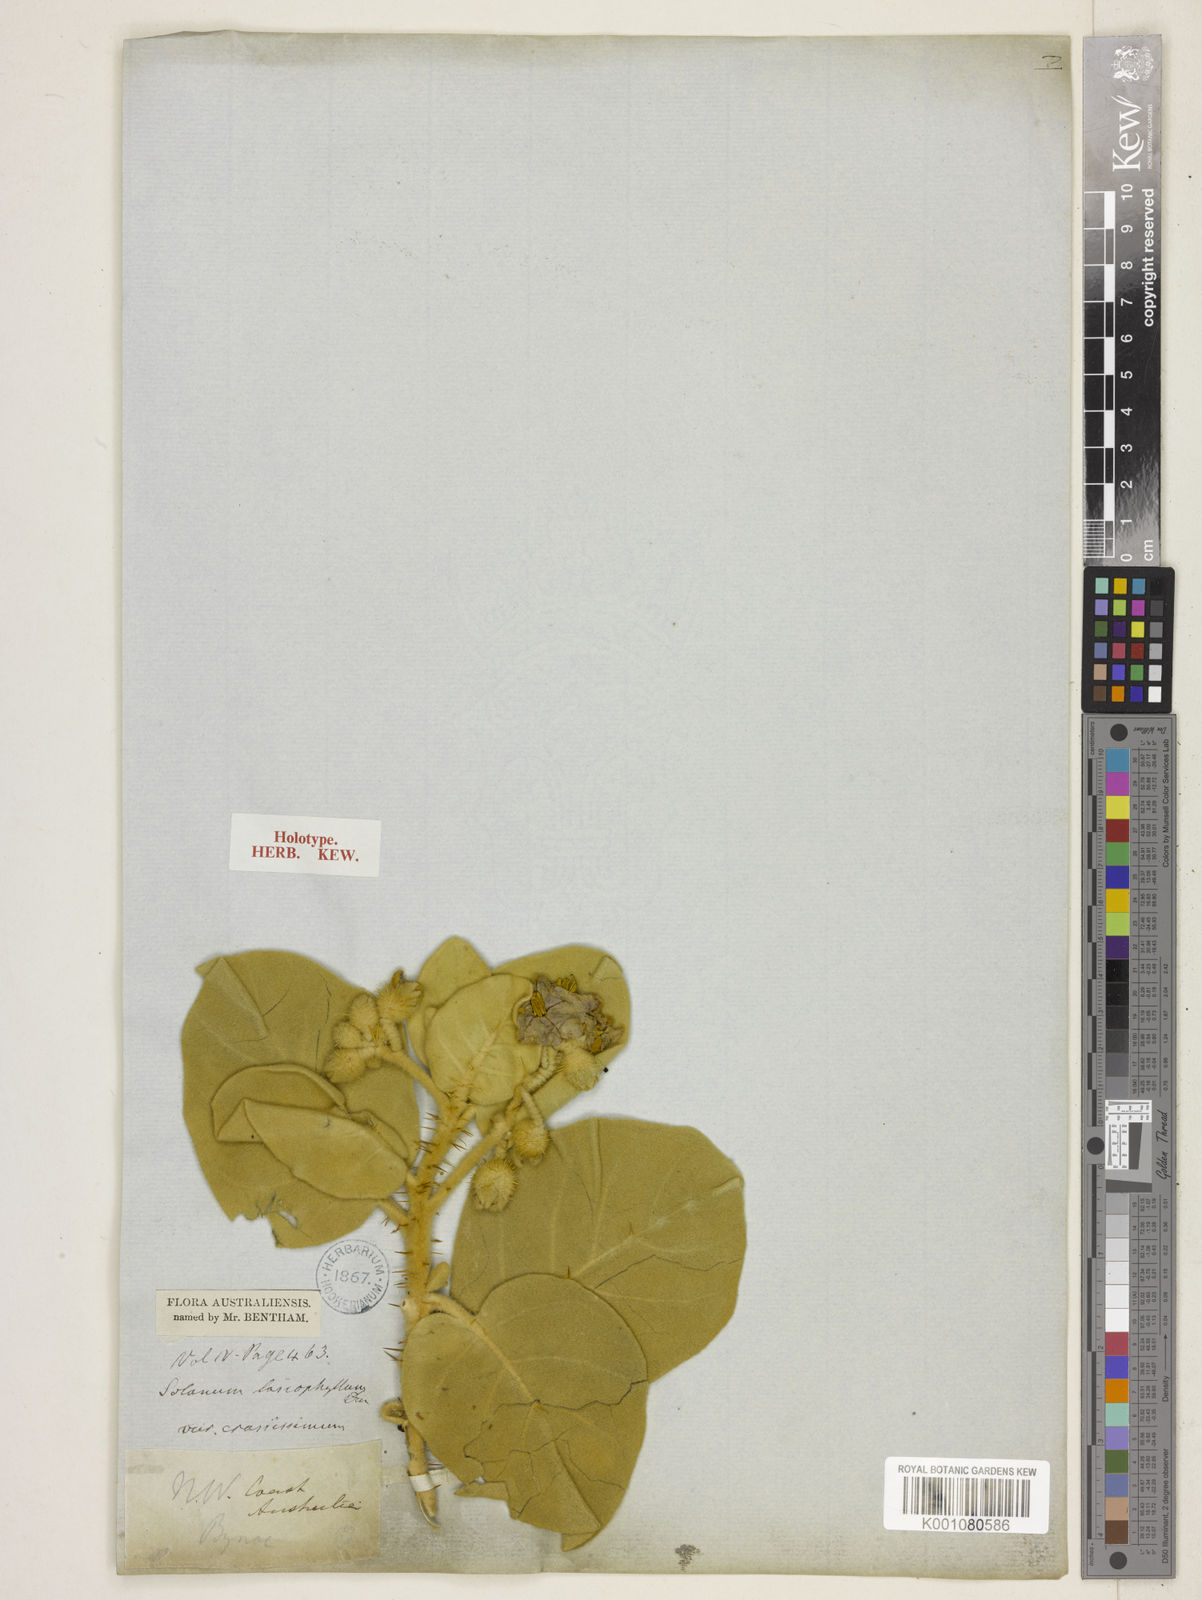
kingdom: Plantae
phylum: Tracheophyta
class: Magnoliopsida
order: Solanales
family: Solanaceae
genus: Solanum
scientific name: Solanum lasiophyllum
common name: Flannelbush
